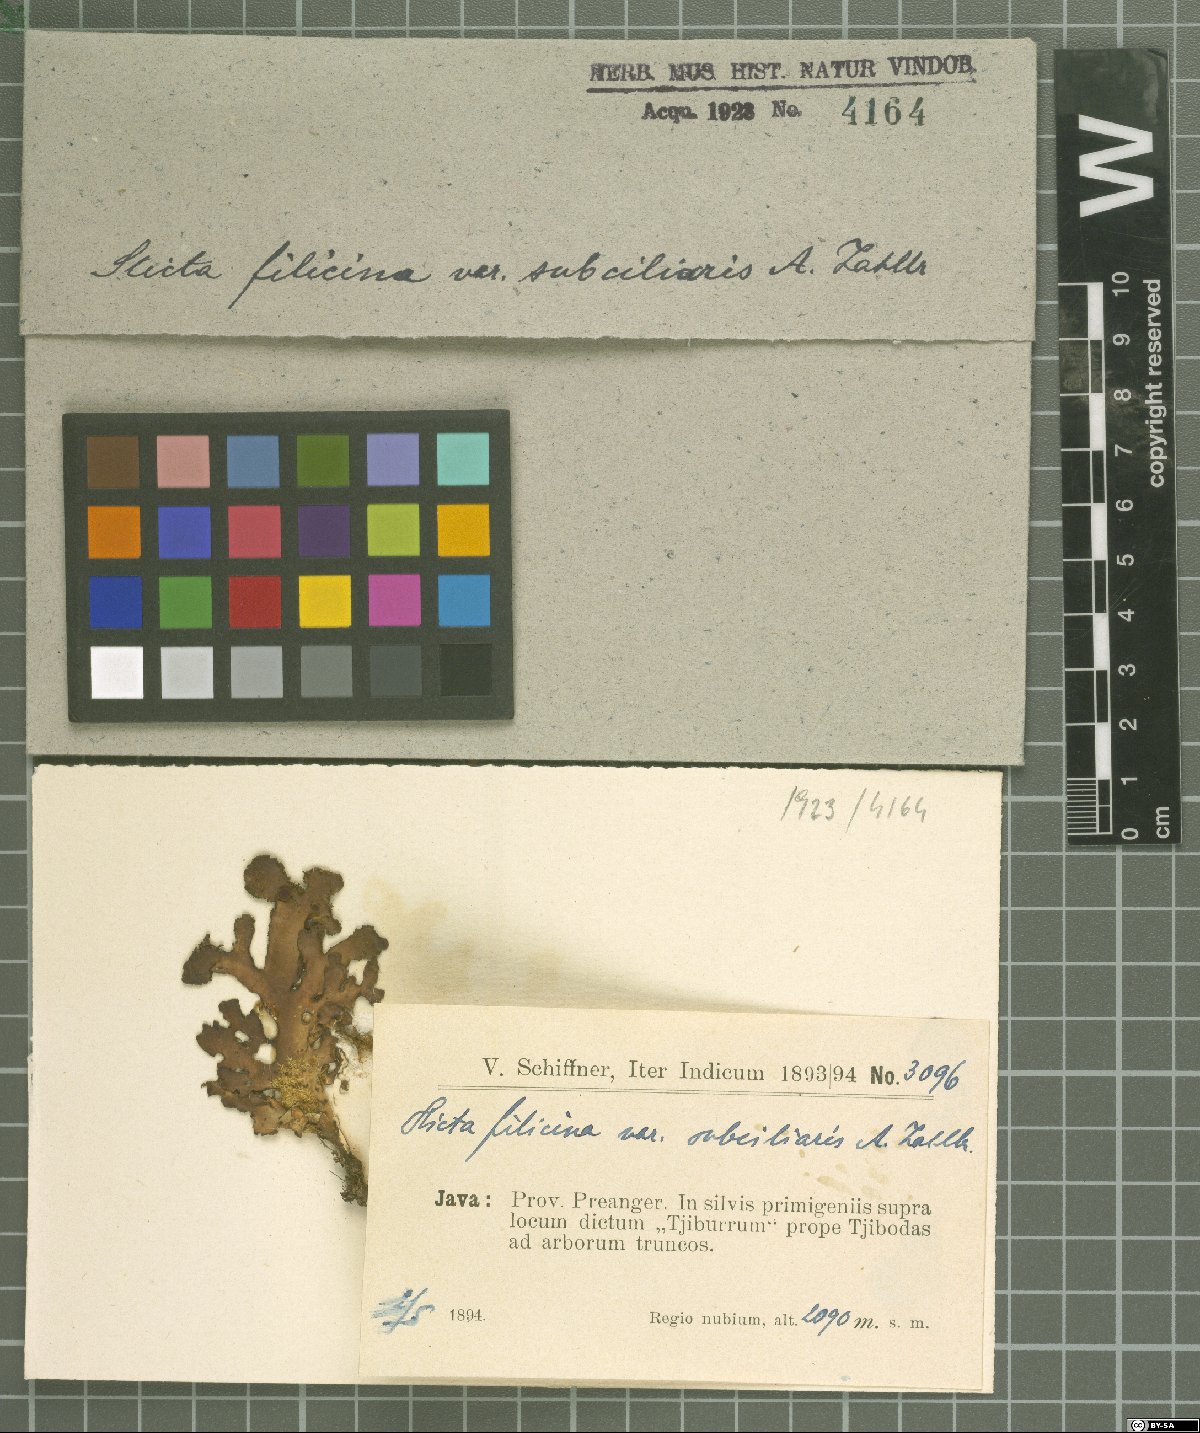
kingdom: Fungi
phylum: Ascomycota
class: Lecanoromycetes
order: Peltigerales
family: Lobariaceae
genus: Sticta
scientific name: Sticta
